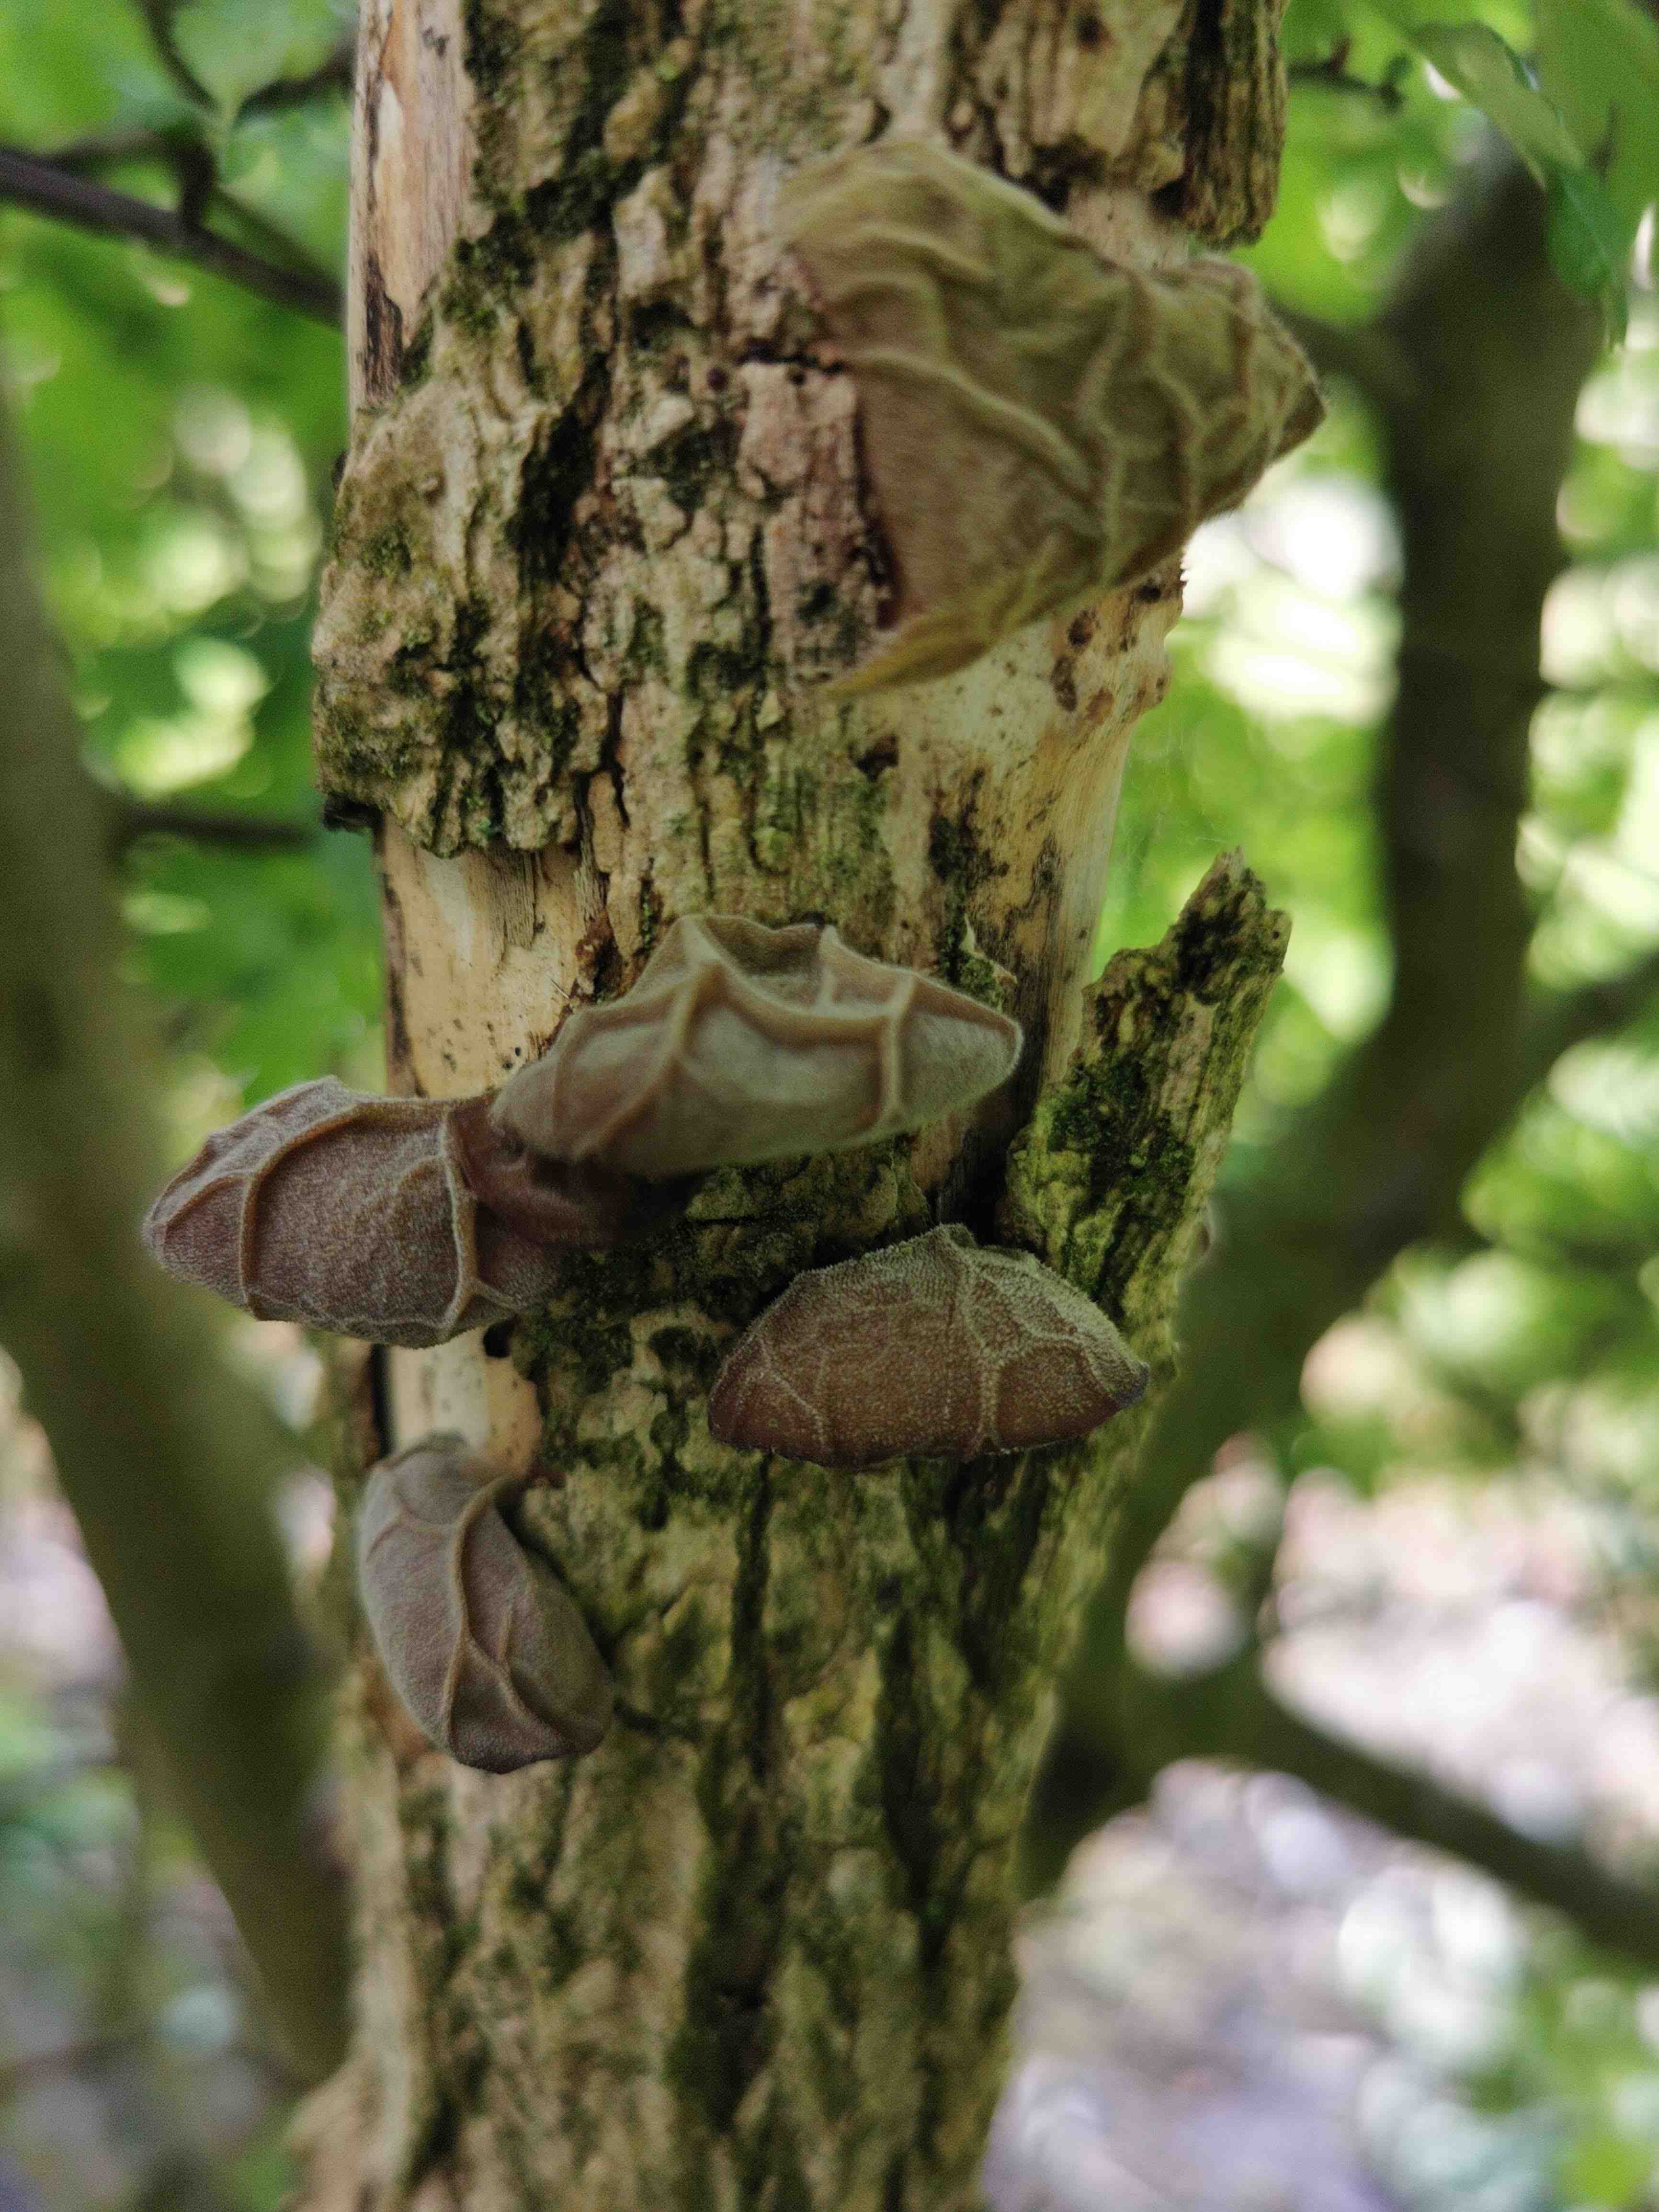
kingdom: Fungi
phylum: Basidiomycota
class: Agaricomycetes
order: Auriculariales
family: Auriculariaceae
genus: Auricularia
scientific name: Auricularia auricula-judae
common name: almindelig judasøre
